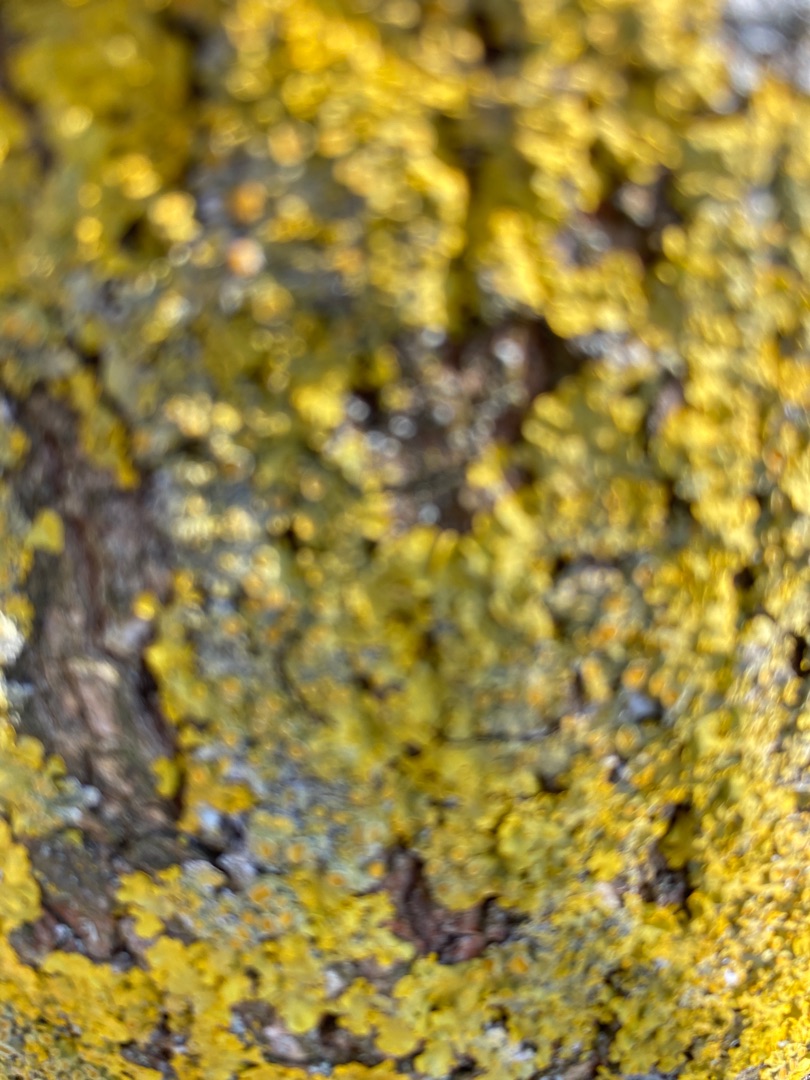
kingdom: Fungi
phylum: Ascomycota
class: Lecanoromycetes
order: Teloschistales
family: Teloschistaceae
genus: Xanthoria
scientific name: Xanthoria parietina
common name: Almindelig væggelav
